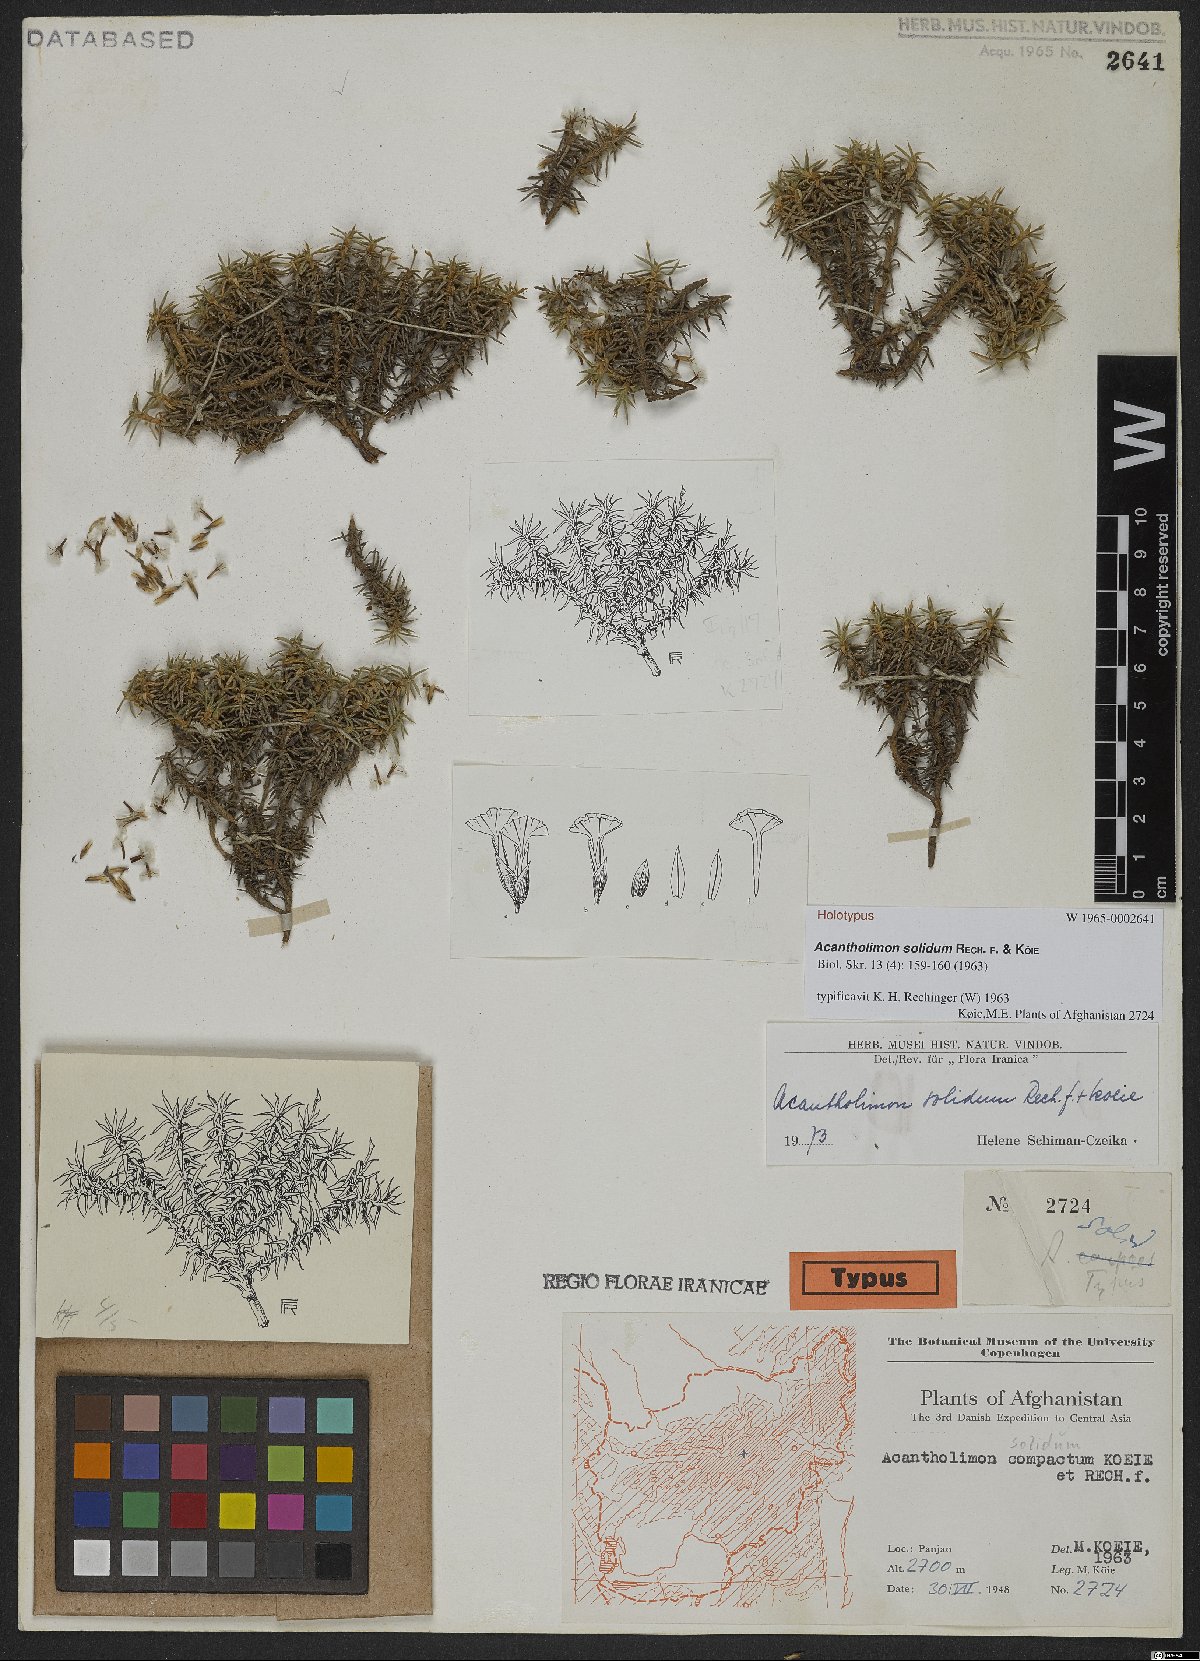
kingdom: Plantae
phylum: Tracheophyta
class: Magnoliopsida
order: Caryophyllales
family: Plumbaginaceae
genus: Acantholimon
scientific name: Acantholimon solidum
